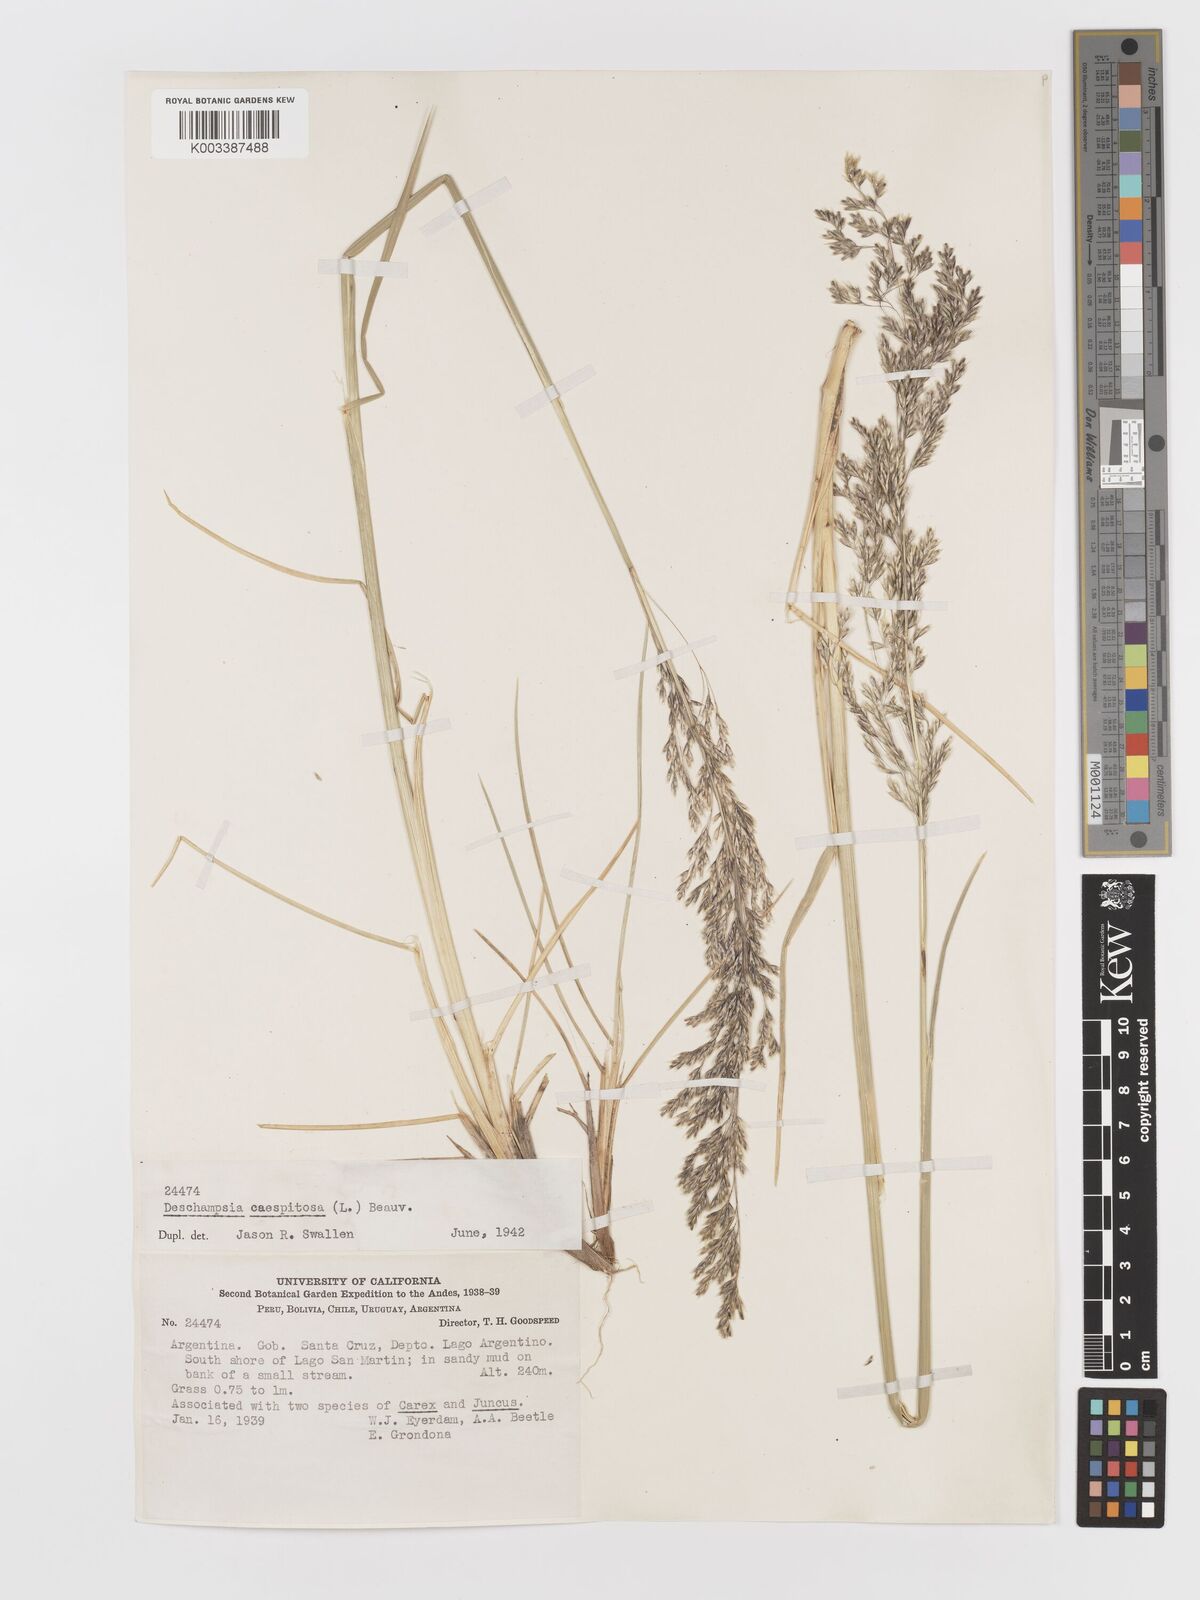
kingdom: Plantae
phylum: Tracheophyta
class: Liliopsida
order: Poales
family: Poaceae
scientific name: Poaceae
